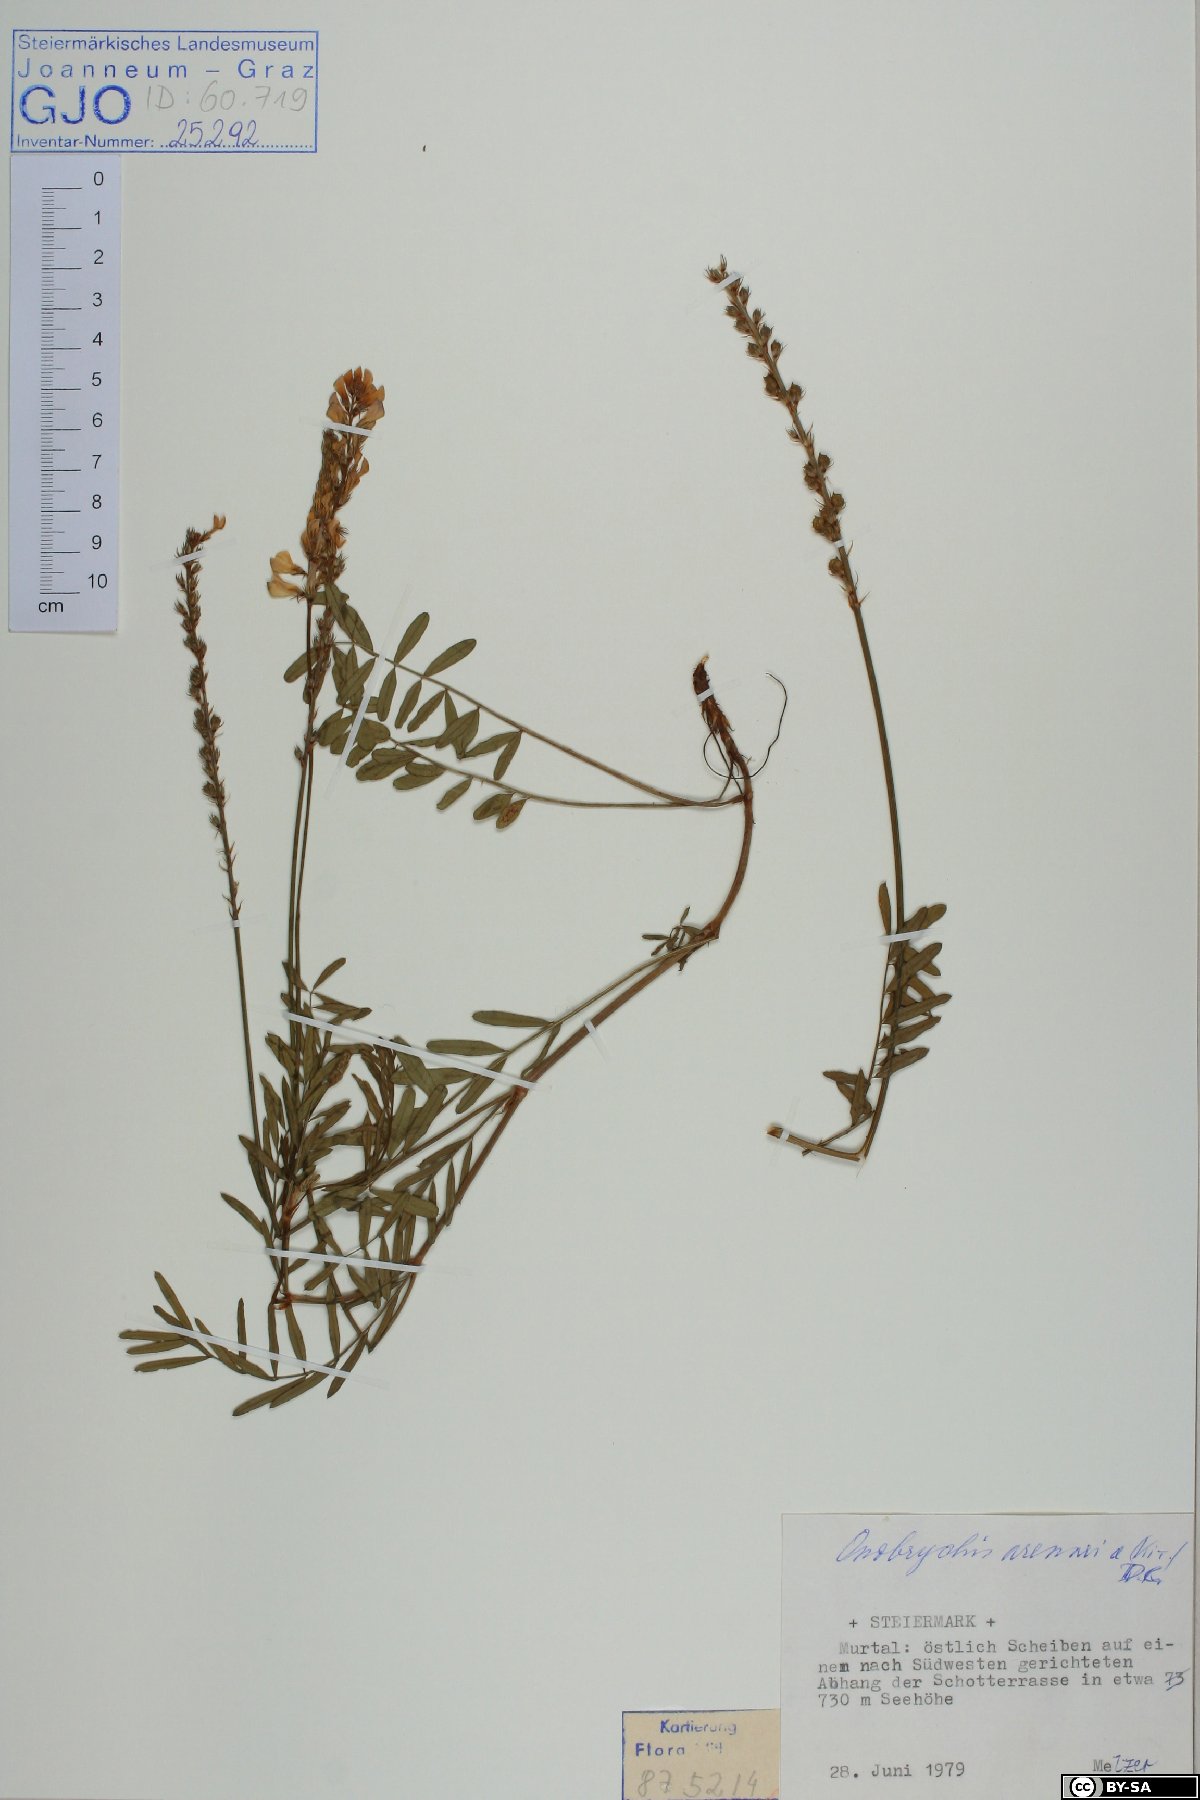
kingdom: Plantae
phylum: Tracheophyta
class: Magnoliopsida
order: Fabales
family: Fabaceae
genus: Onobrychis
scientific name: Onobrychis arenaria
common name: Sand esparcet
